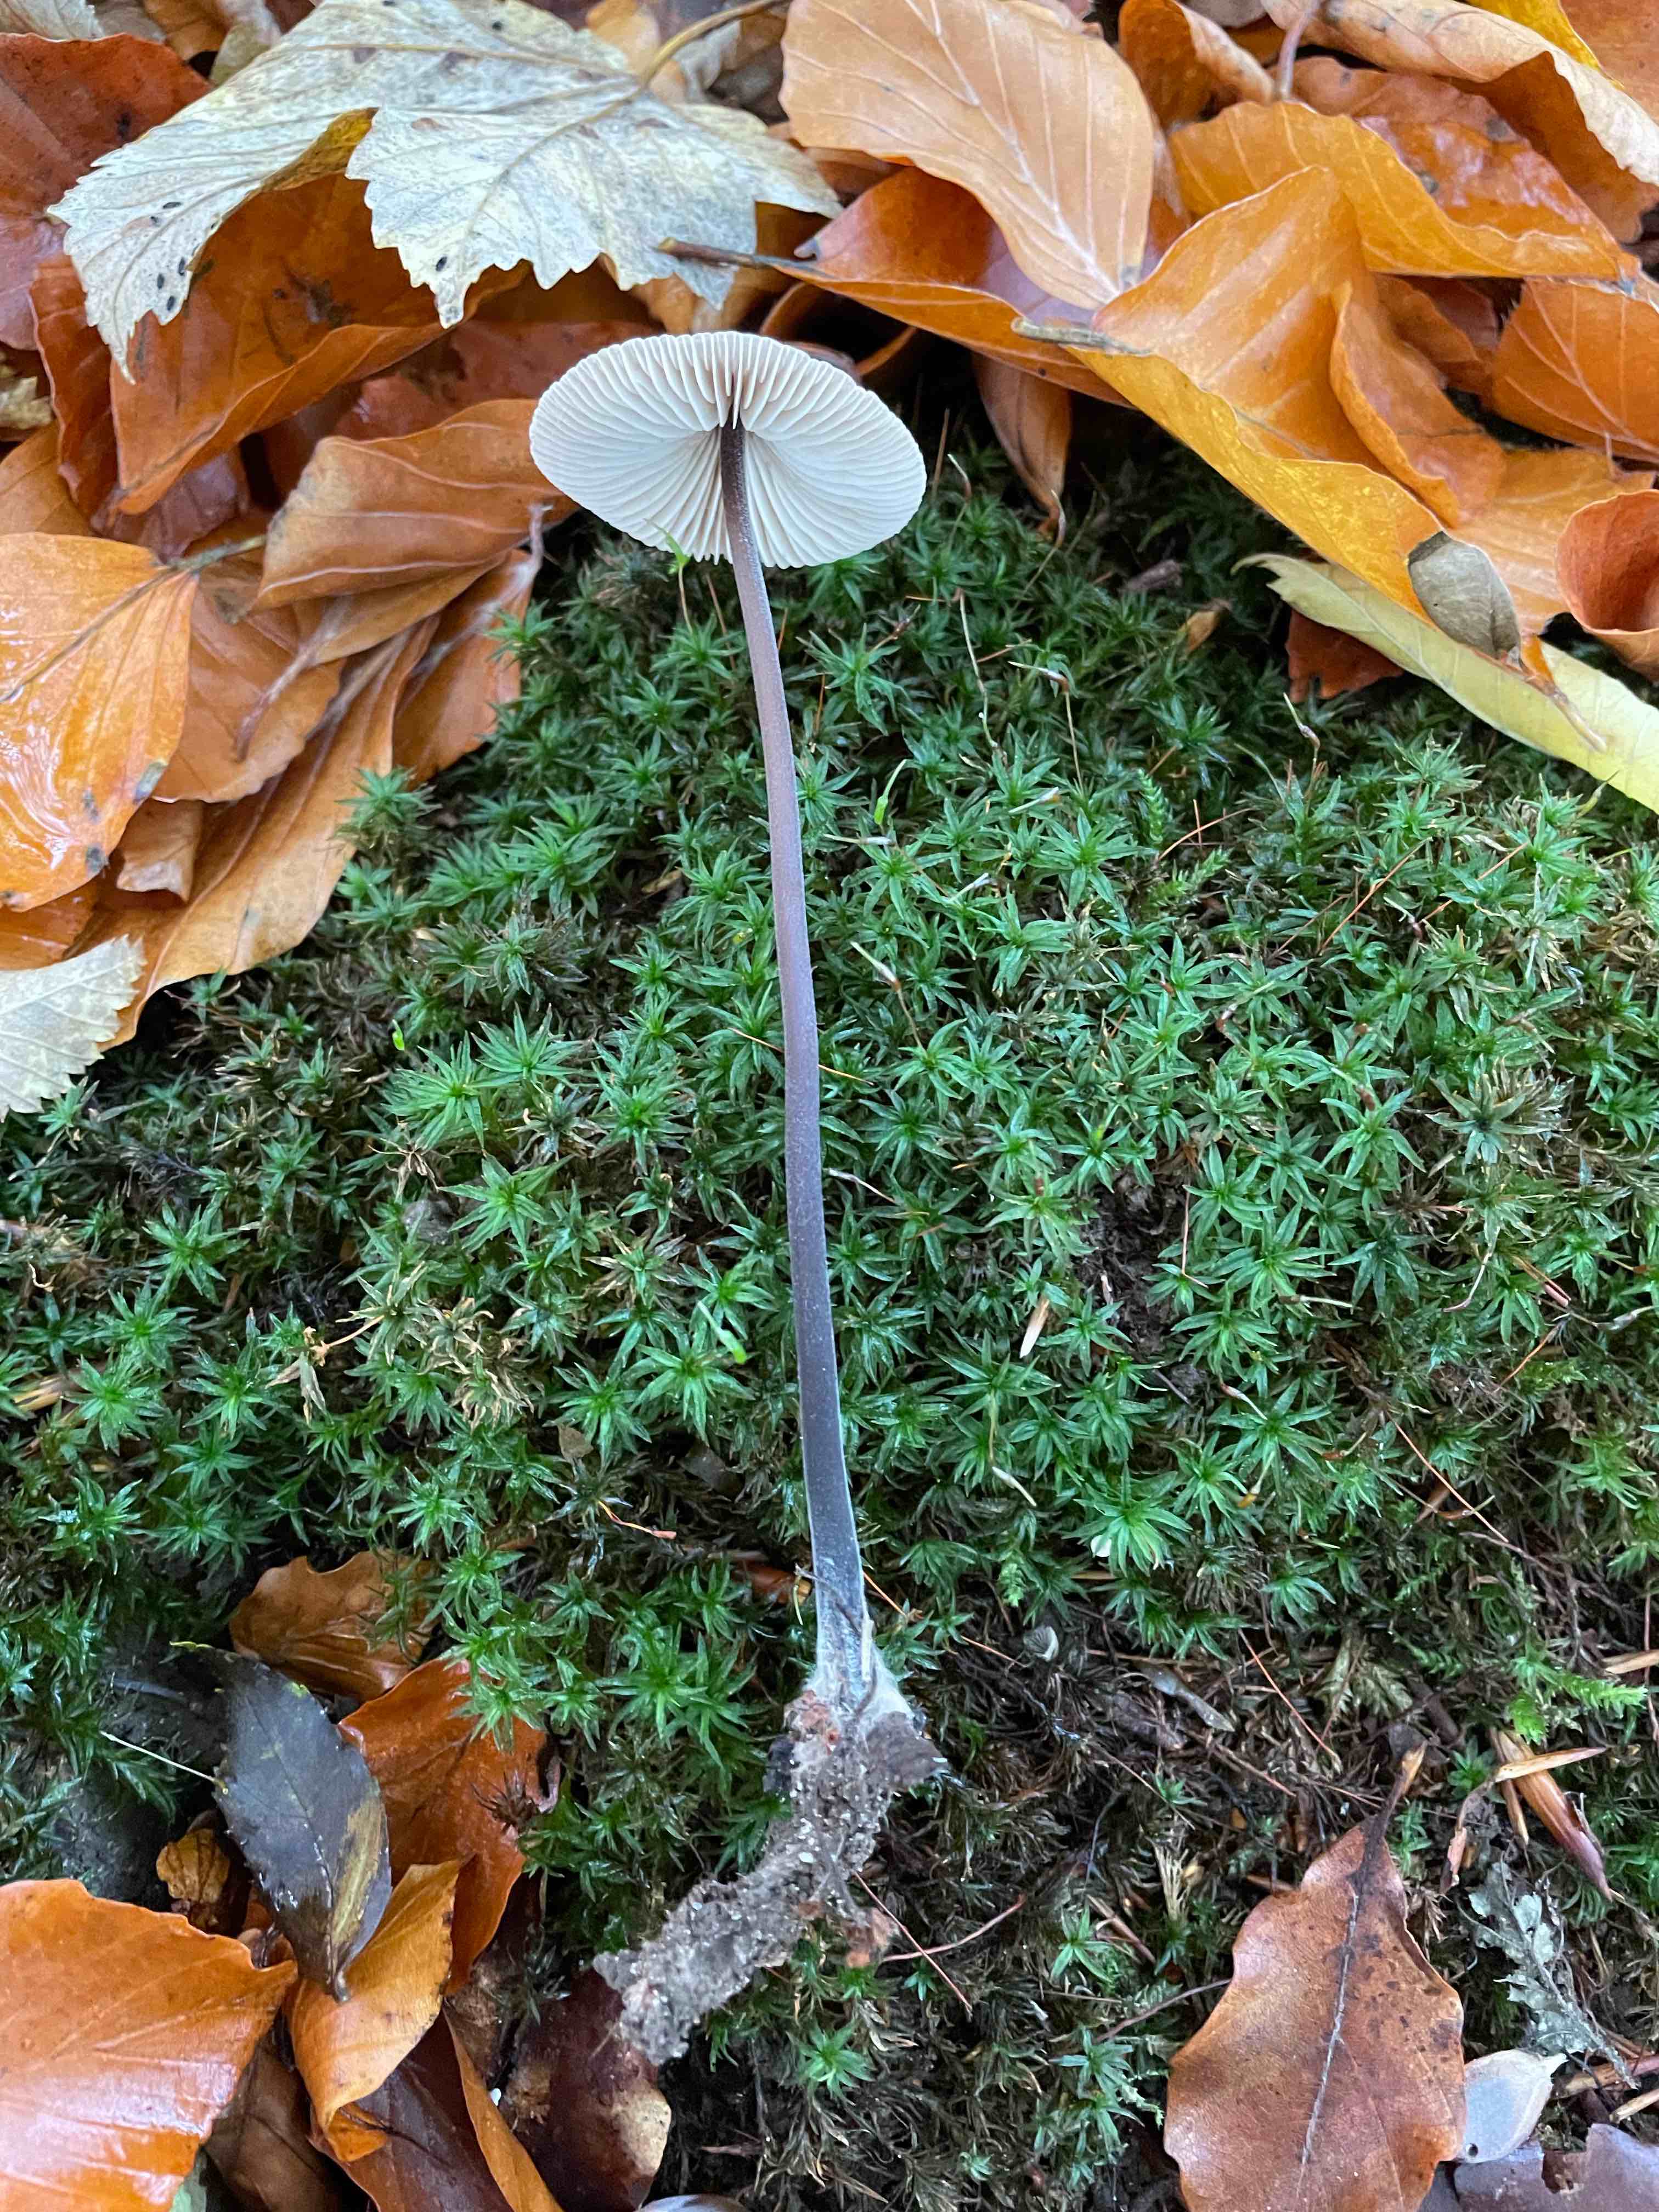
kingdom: Fungi
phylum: Basidiomycota
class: Agaricomycetes
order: Agaricales
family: Omphalotaceae
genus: Mycetinis
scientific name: Mycetinis alliaceus
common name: stor løghat
